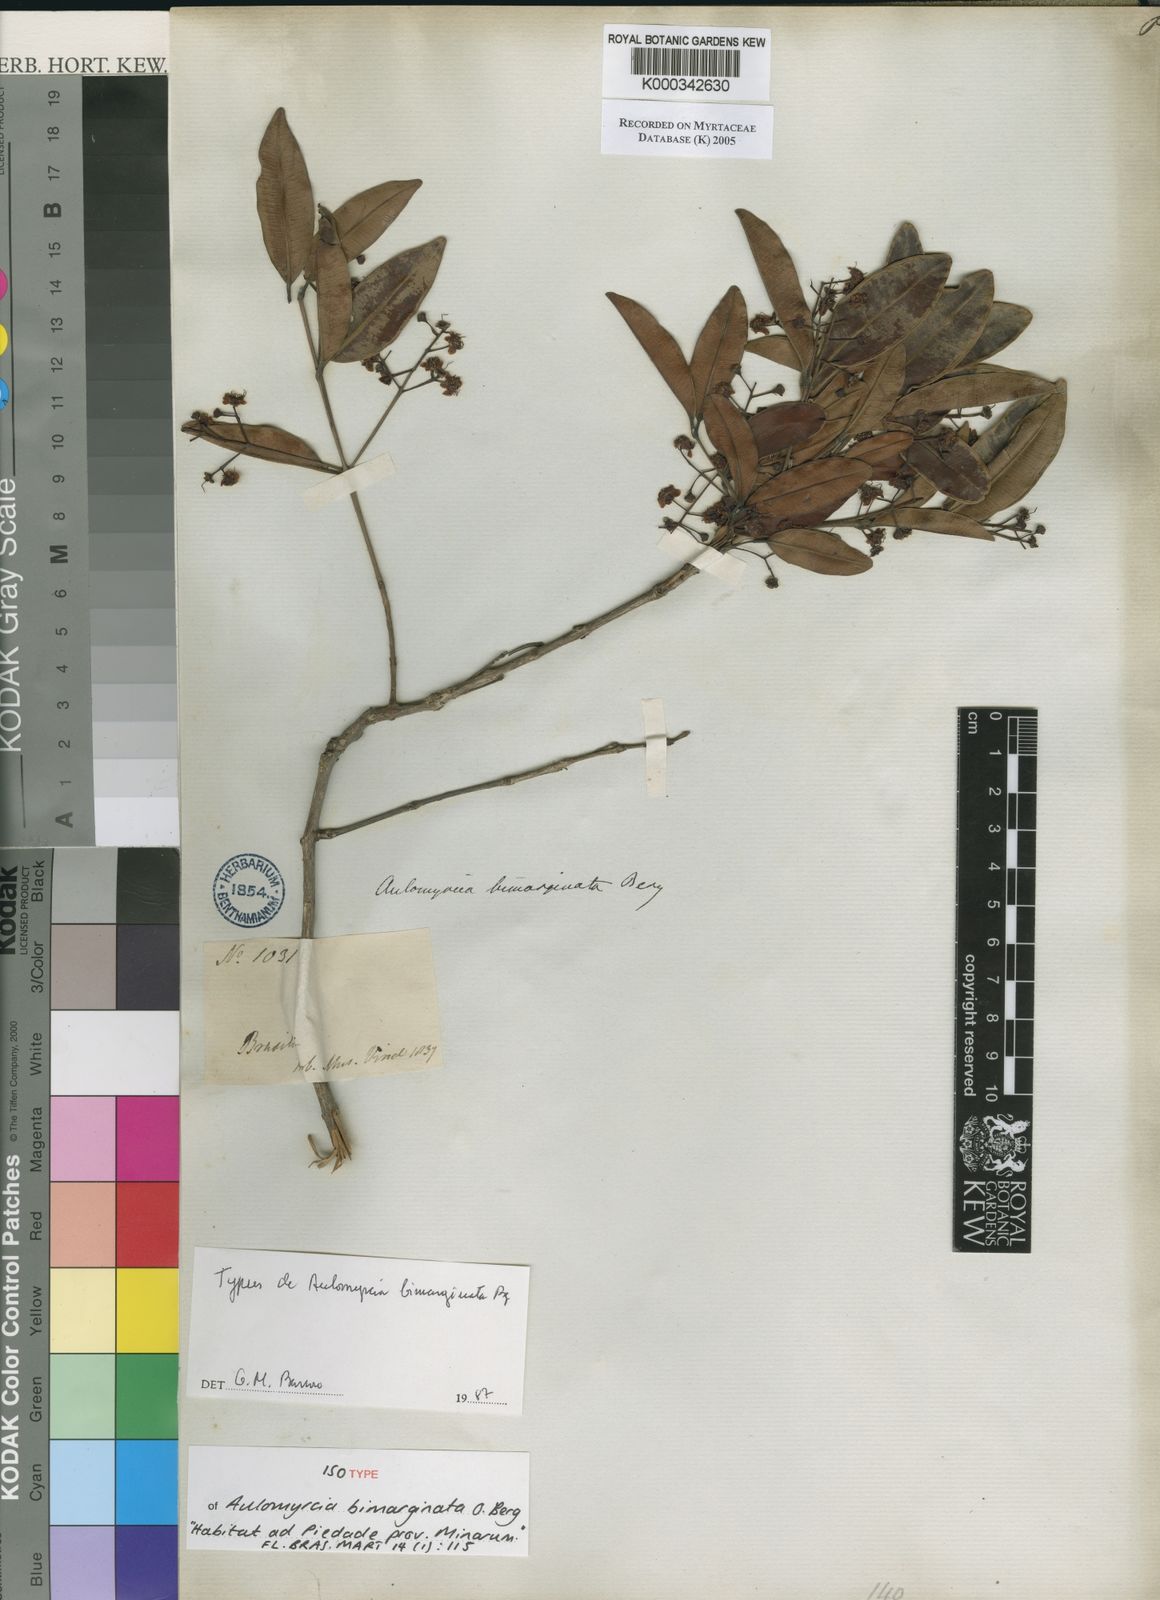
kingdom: Plantae
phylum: Tracheophyta
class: Magnoliopsida
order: Myrtales
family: Myrtaceae
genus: Myrcia
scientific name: Myrcia guianensis
